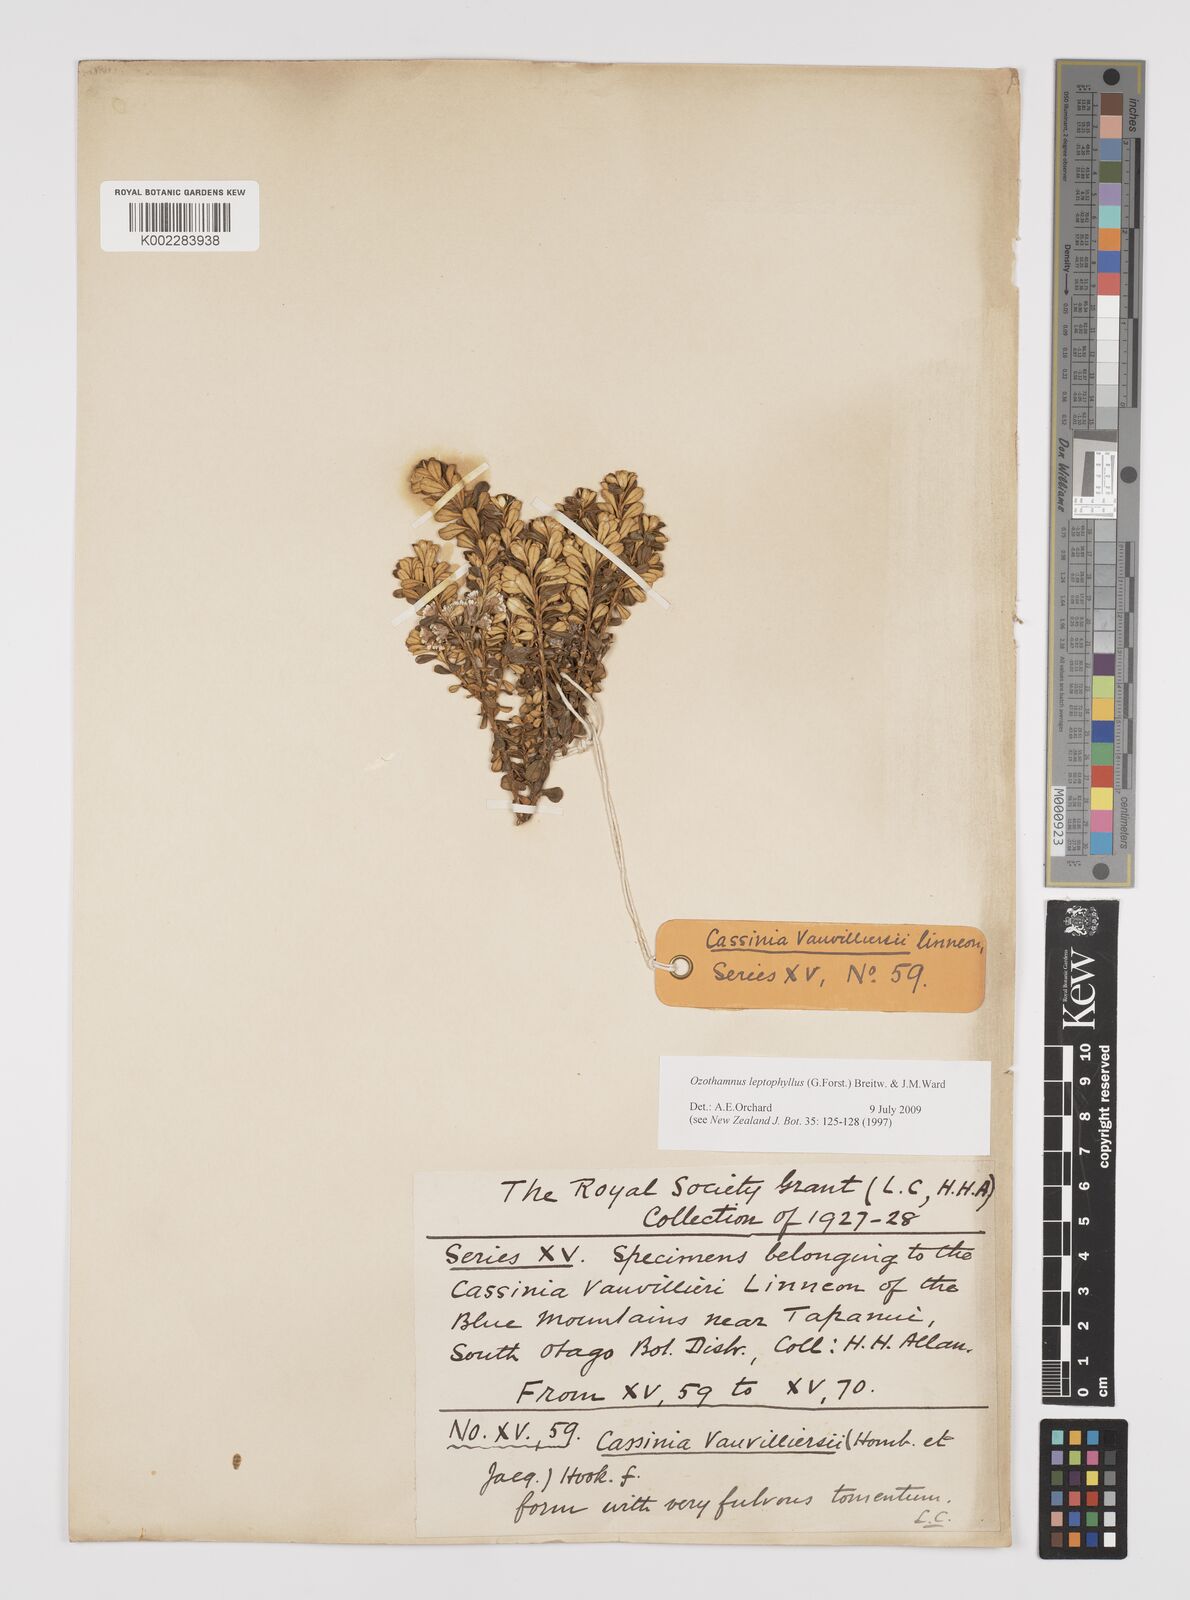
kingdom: Plantae
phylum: Tracheophyta
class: Magnoliopsida
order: Asterales
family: Asteraceae
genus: Ozothamnus
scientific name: Ozothamnus leptophyllus
